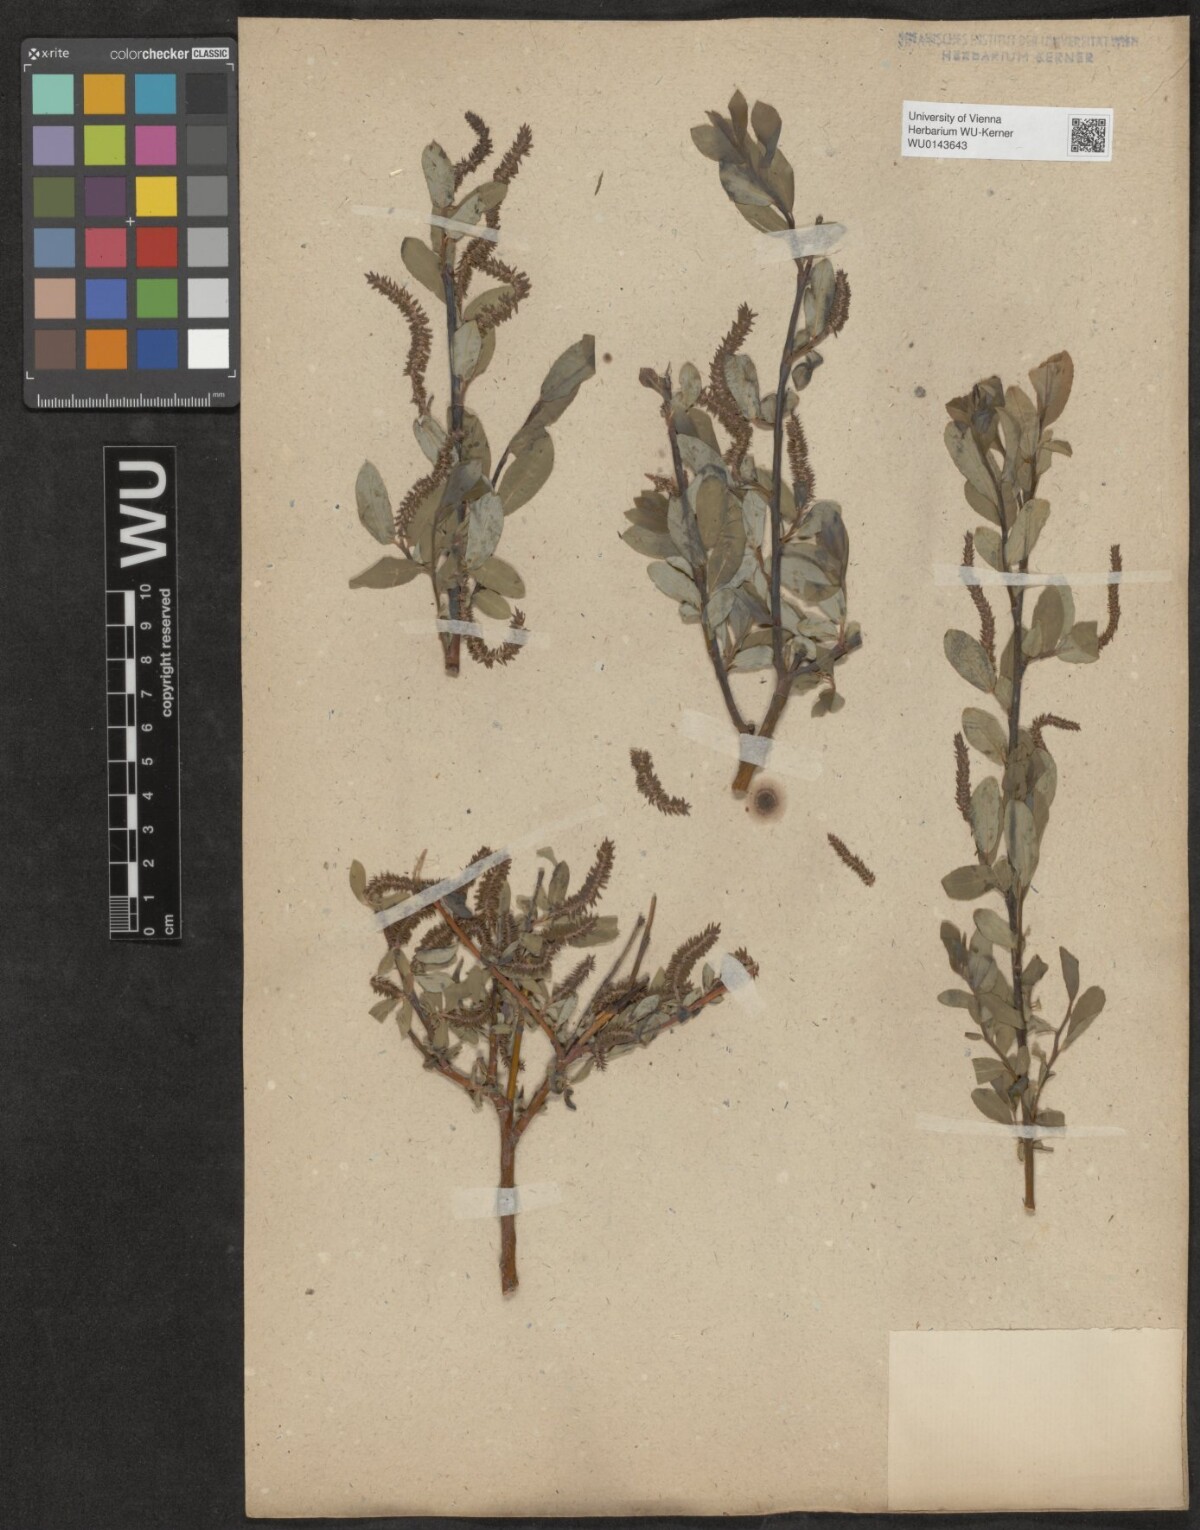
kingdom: Plantae
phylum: Tracheophyta
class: Magnoliopsida
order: Malpighiales
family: Salicaceae
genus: Salix
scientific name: Salix
